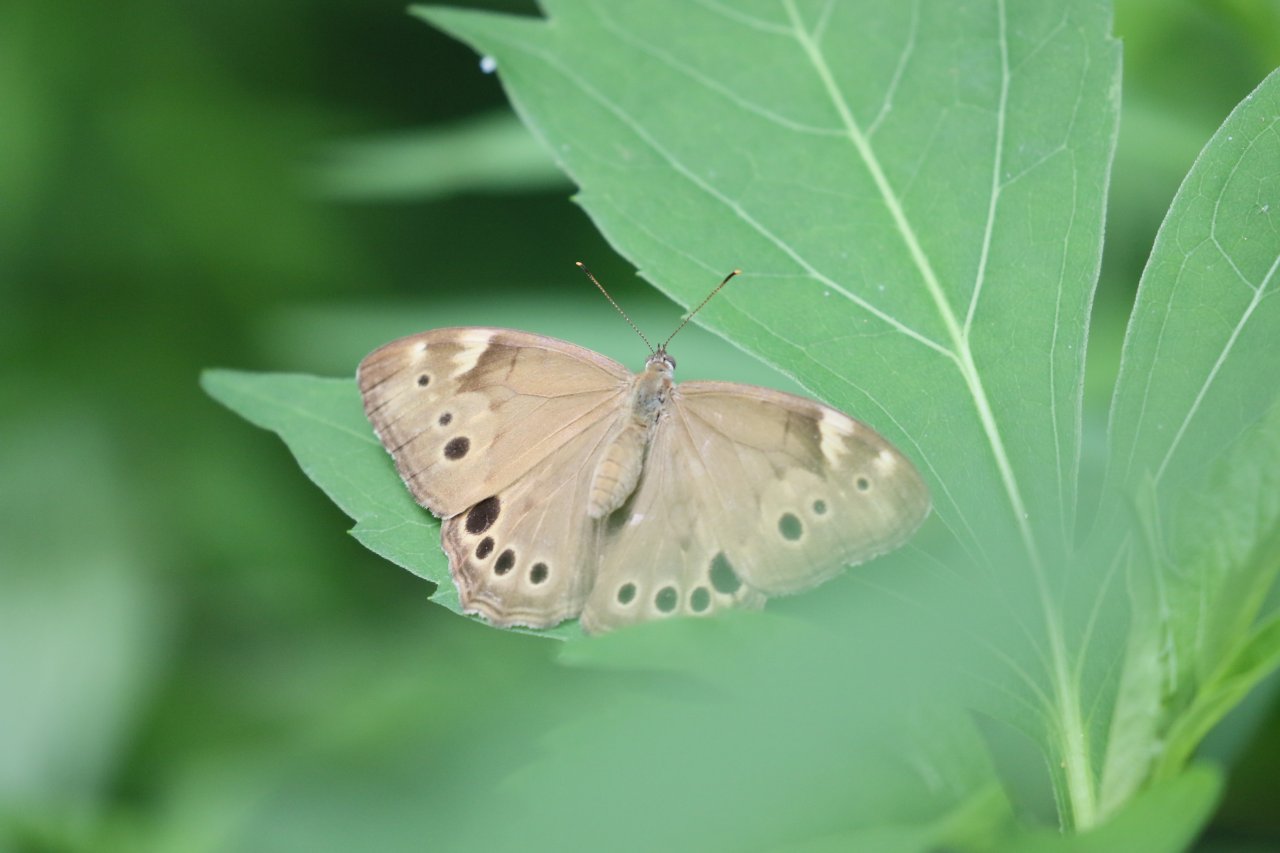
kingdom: Animalia
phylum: Arthropoda
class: Insecta
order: Lepidoptera
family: Nymphalidae
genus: Lethe
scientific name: Lethe anthedon
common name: Northern Pearly-Eye
